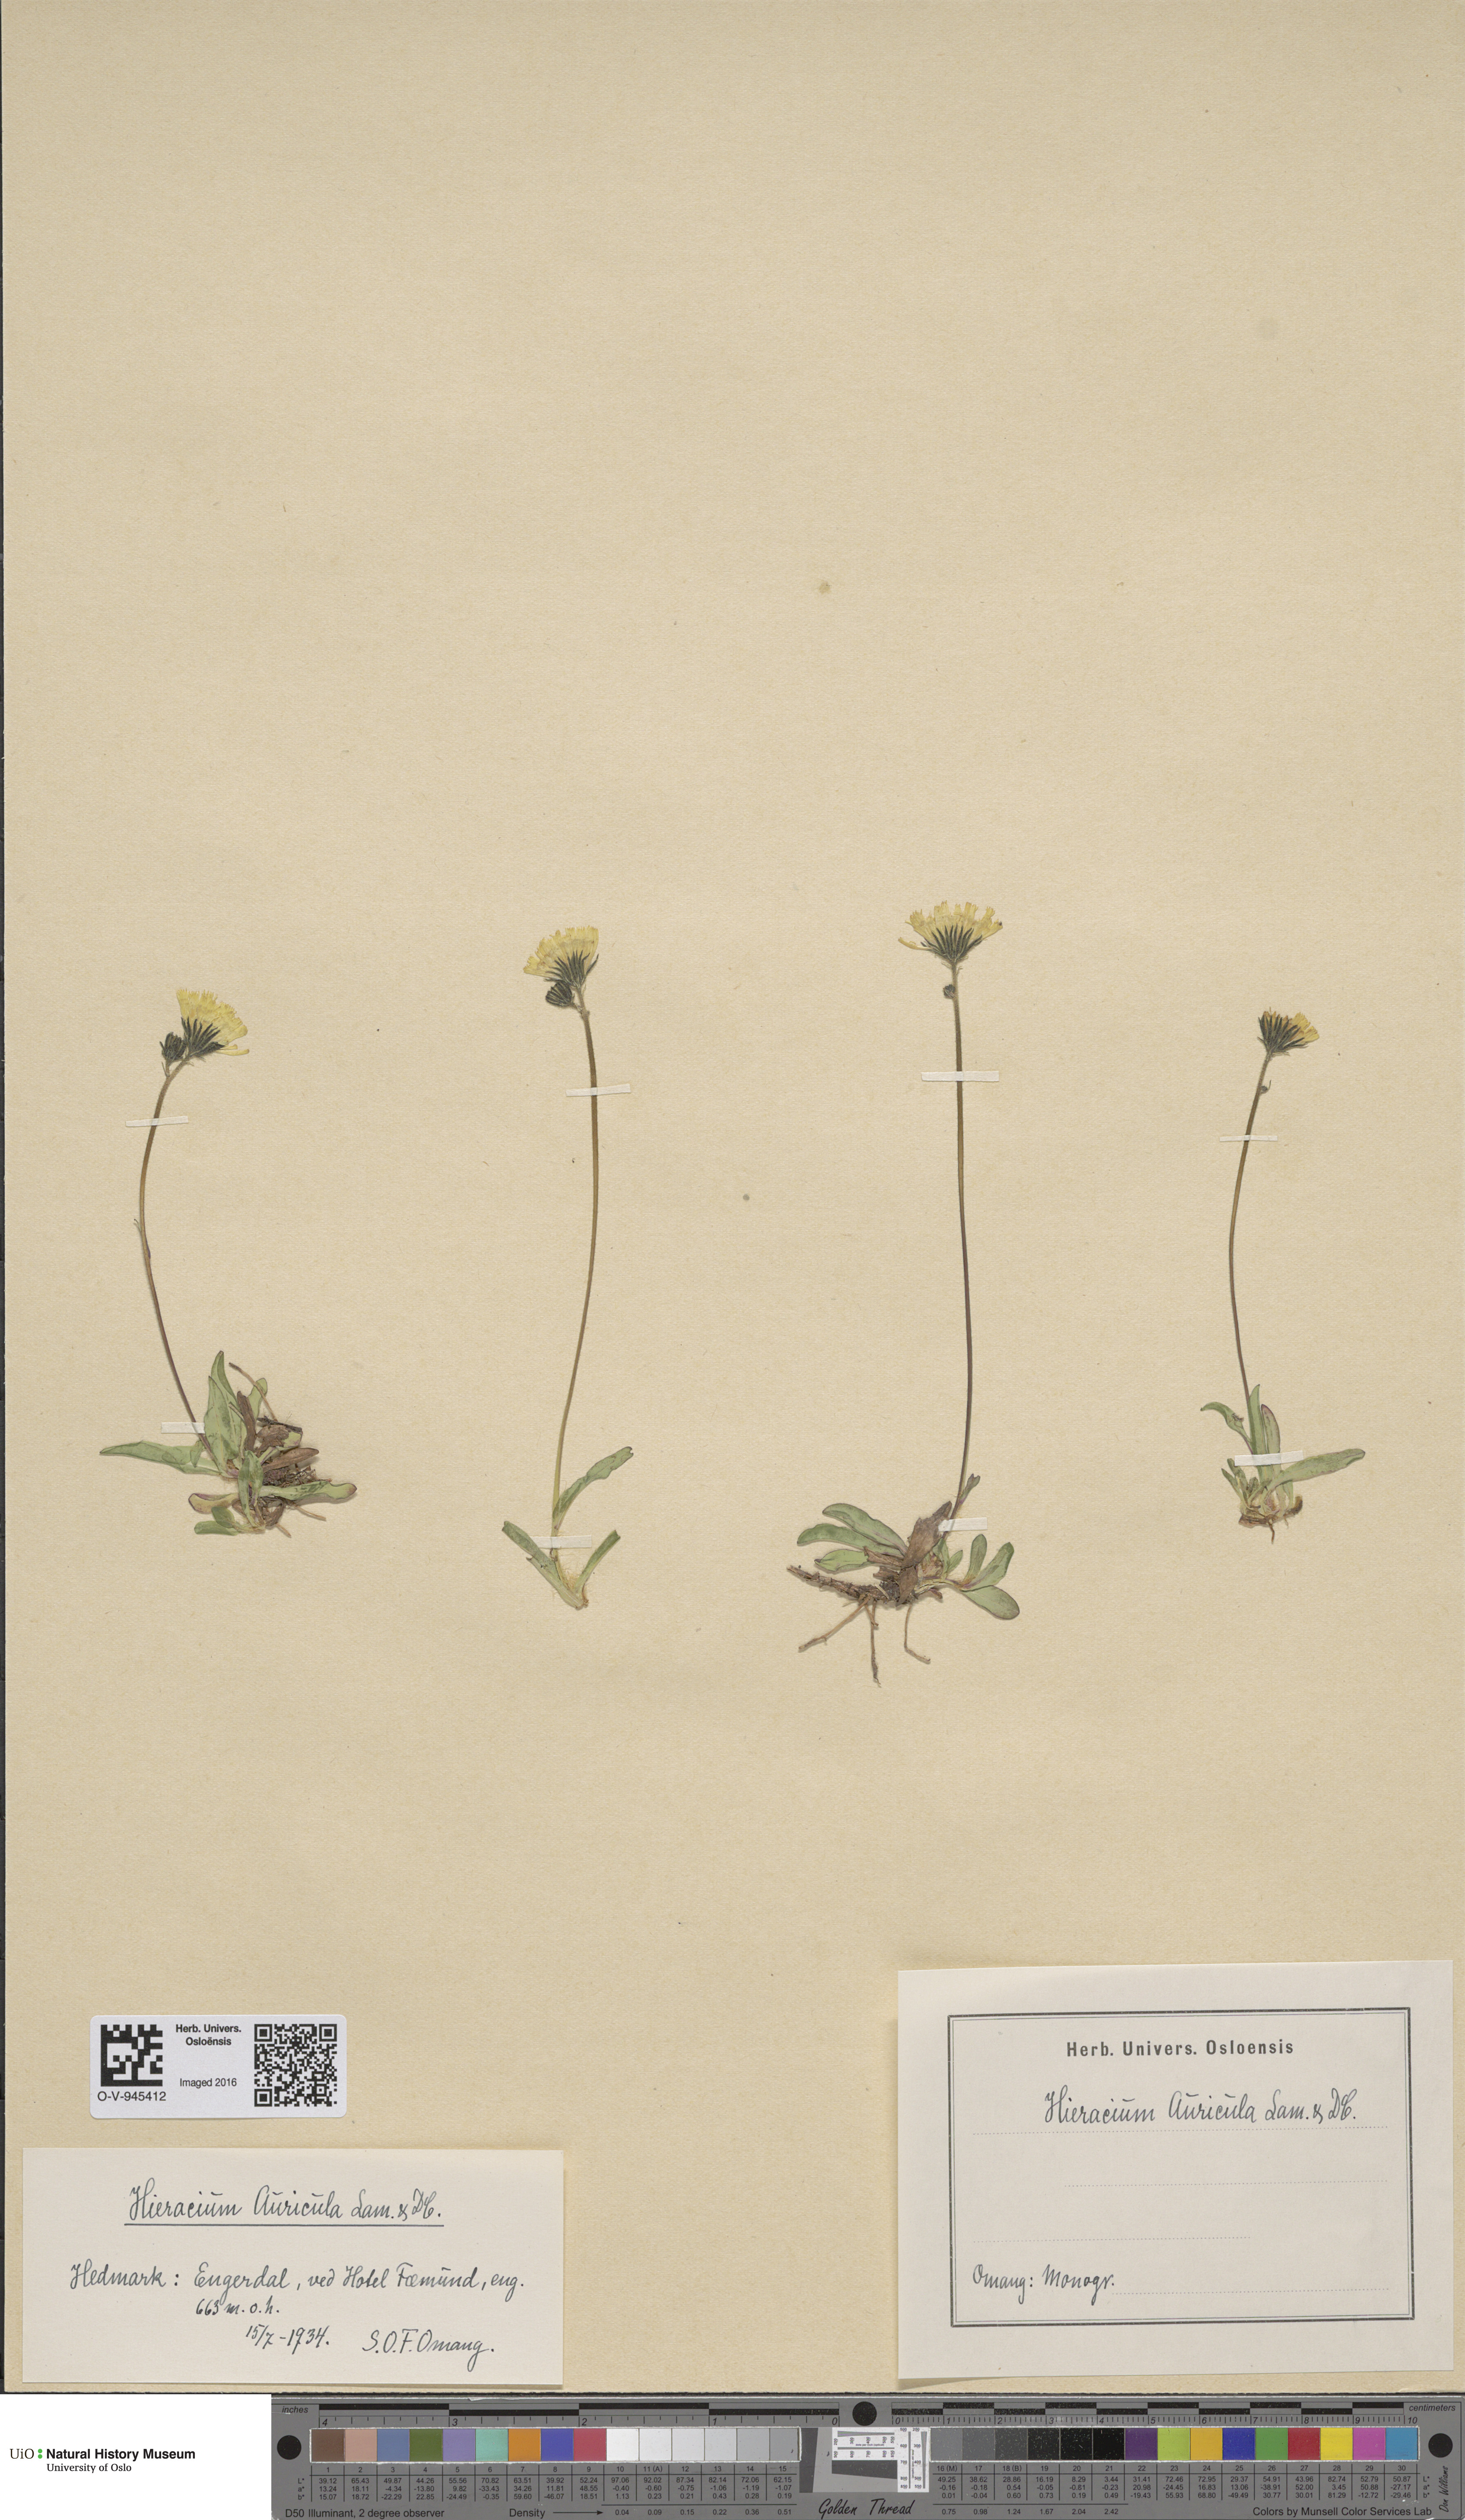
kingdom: Plantae
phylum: Tracheophyta
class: Magnoliopsida
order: Asterales
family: Asteraceae
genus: Pilosella
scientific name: Pilosella lactucella
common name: Glaucous fox-and-cubs
